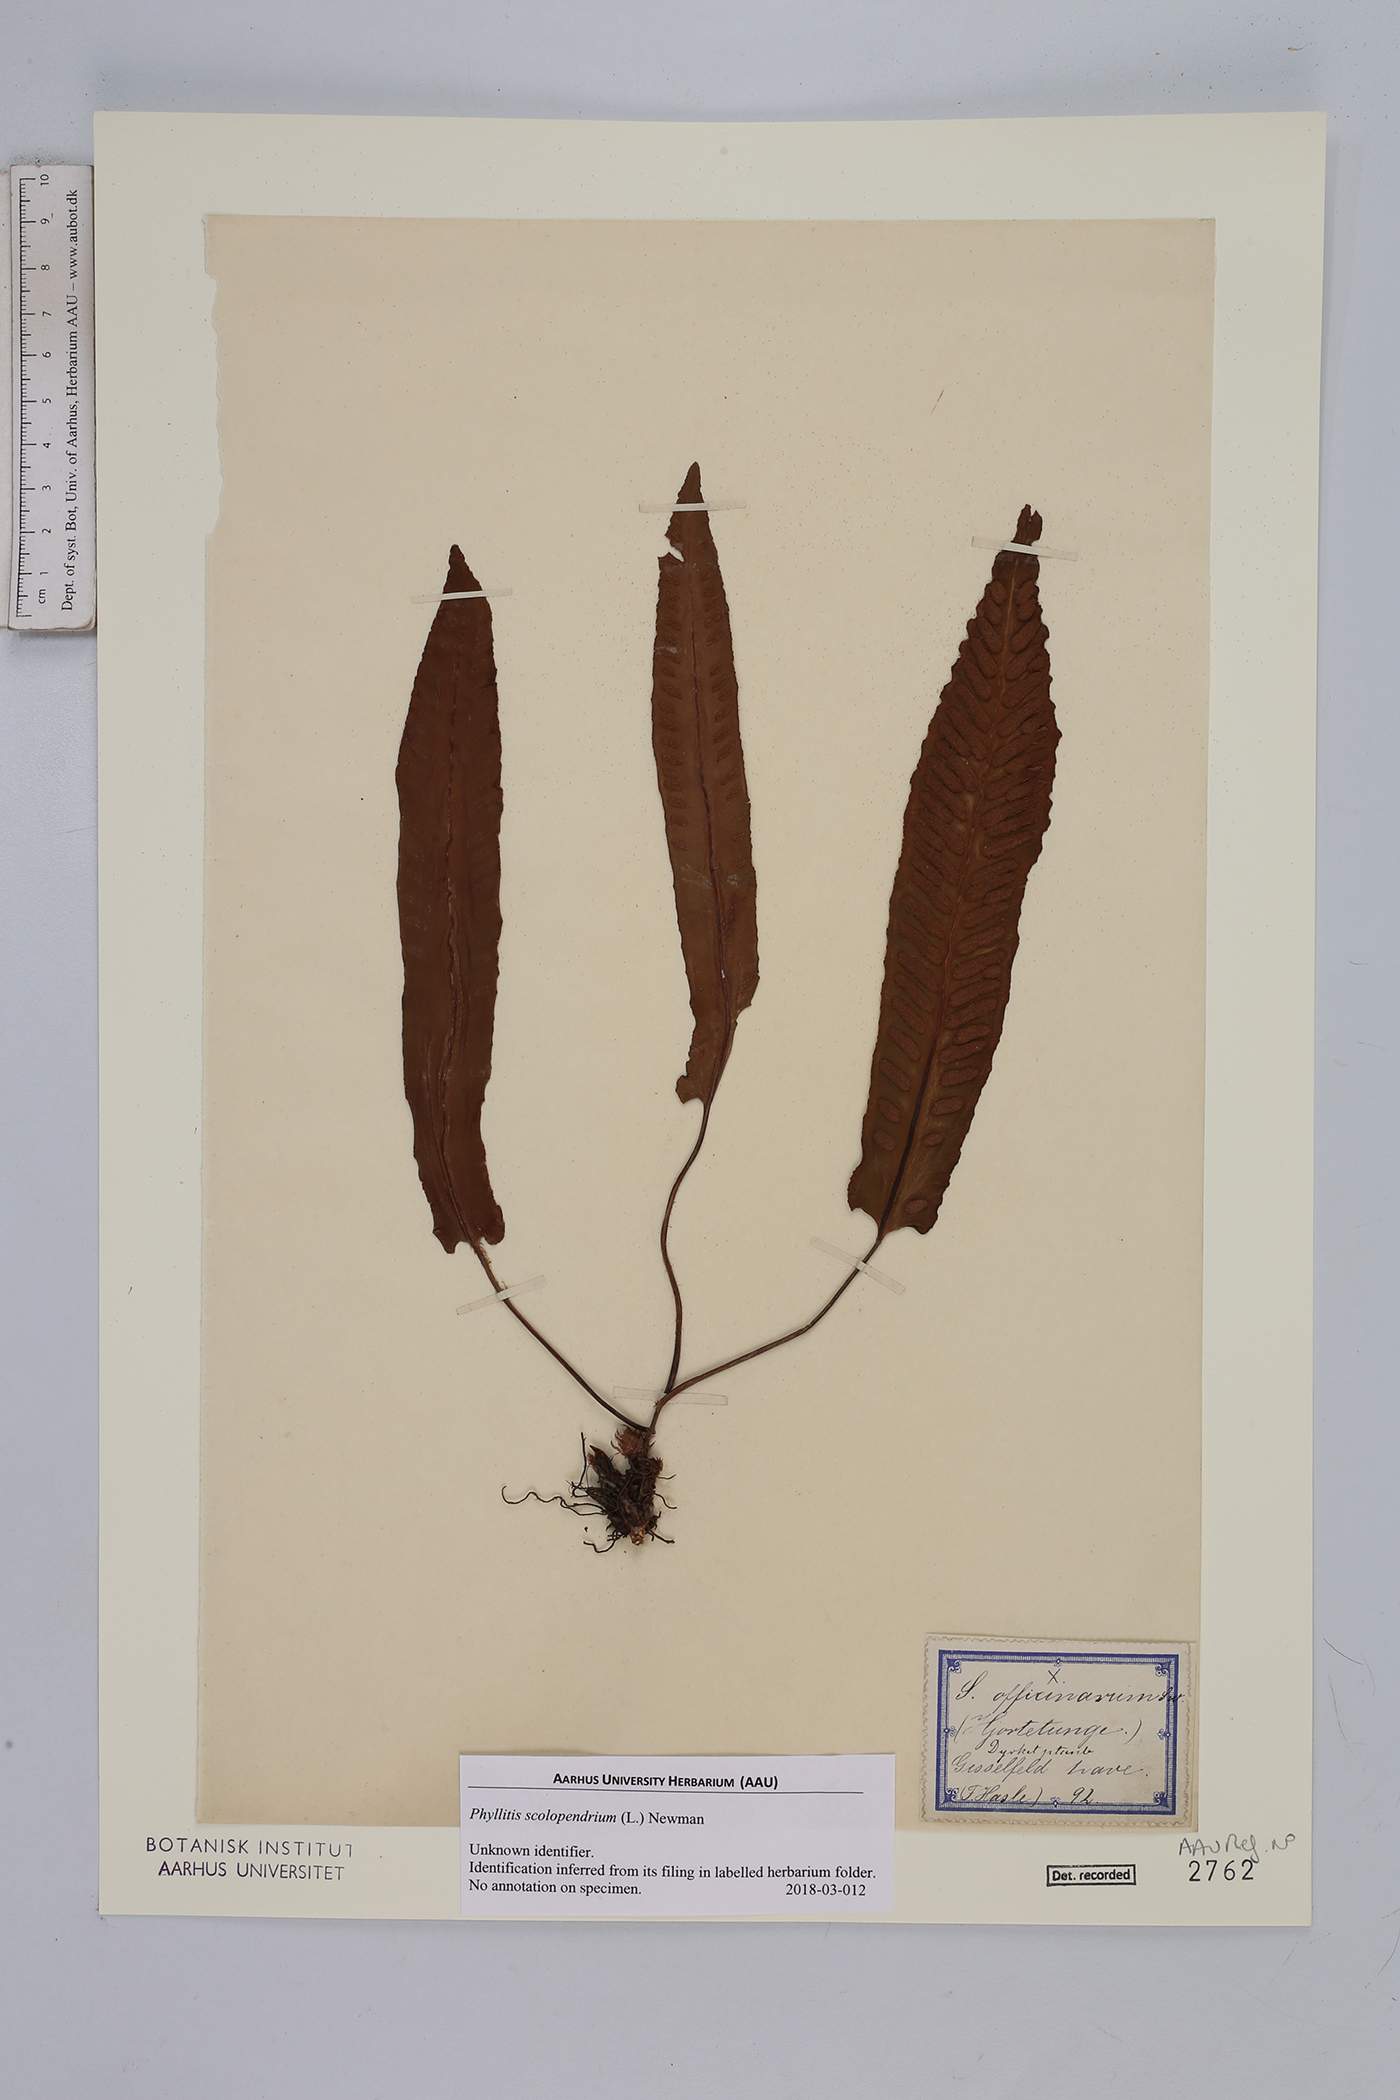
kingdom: Plantae
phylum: Tracheophyta
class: Polypodiopsida
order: Polypodiales
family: Aspleniaceae
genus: Asplenium
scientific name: Asplenium scolopendrium
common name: Hart's-tongue fern
